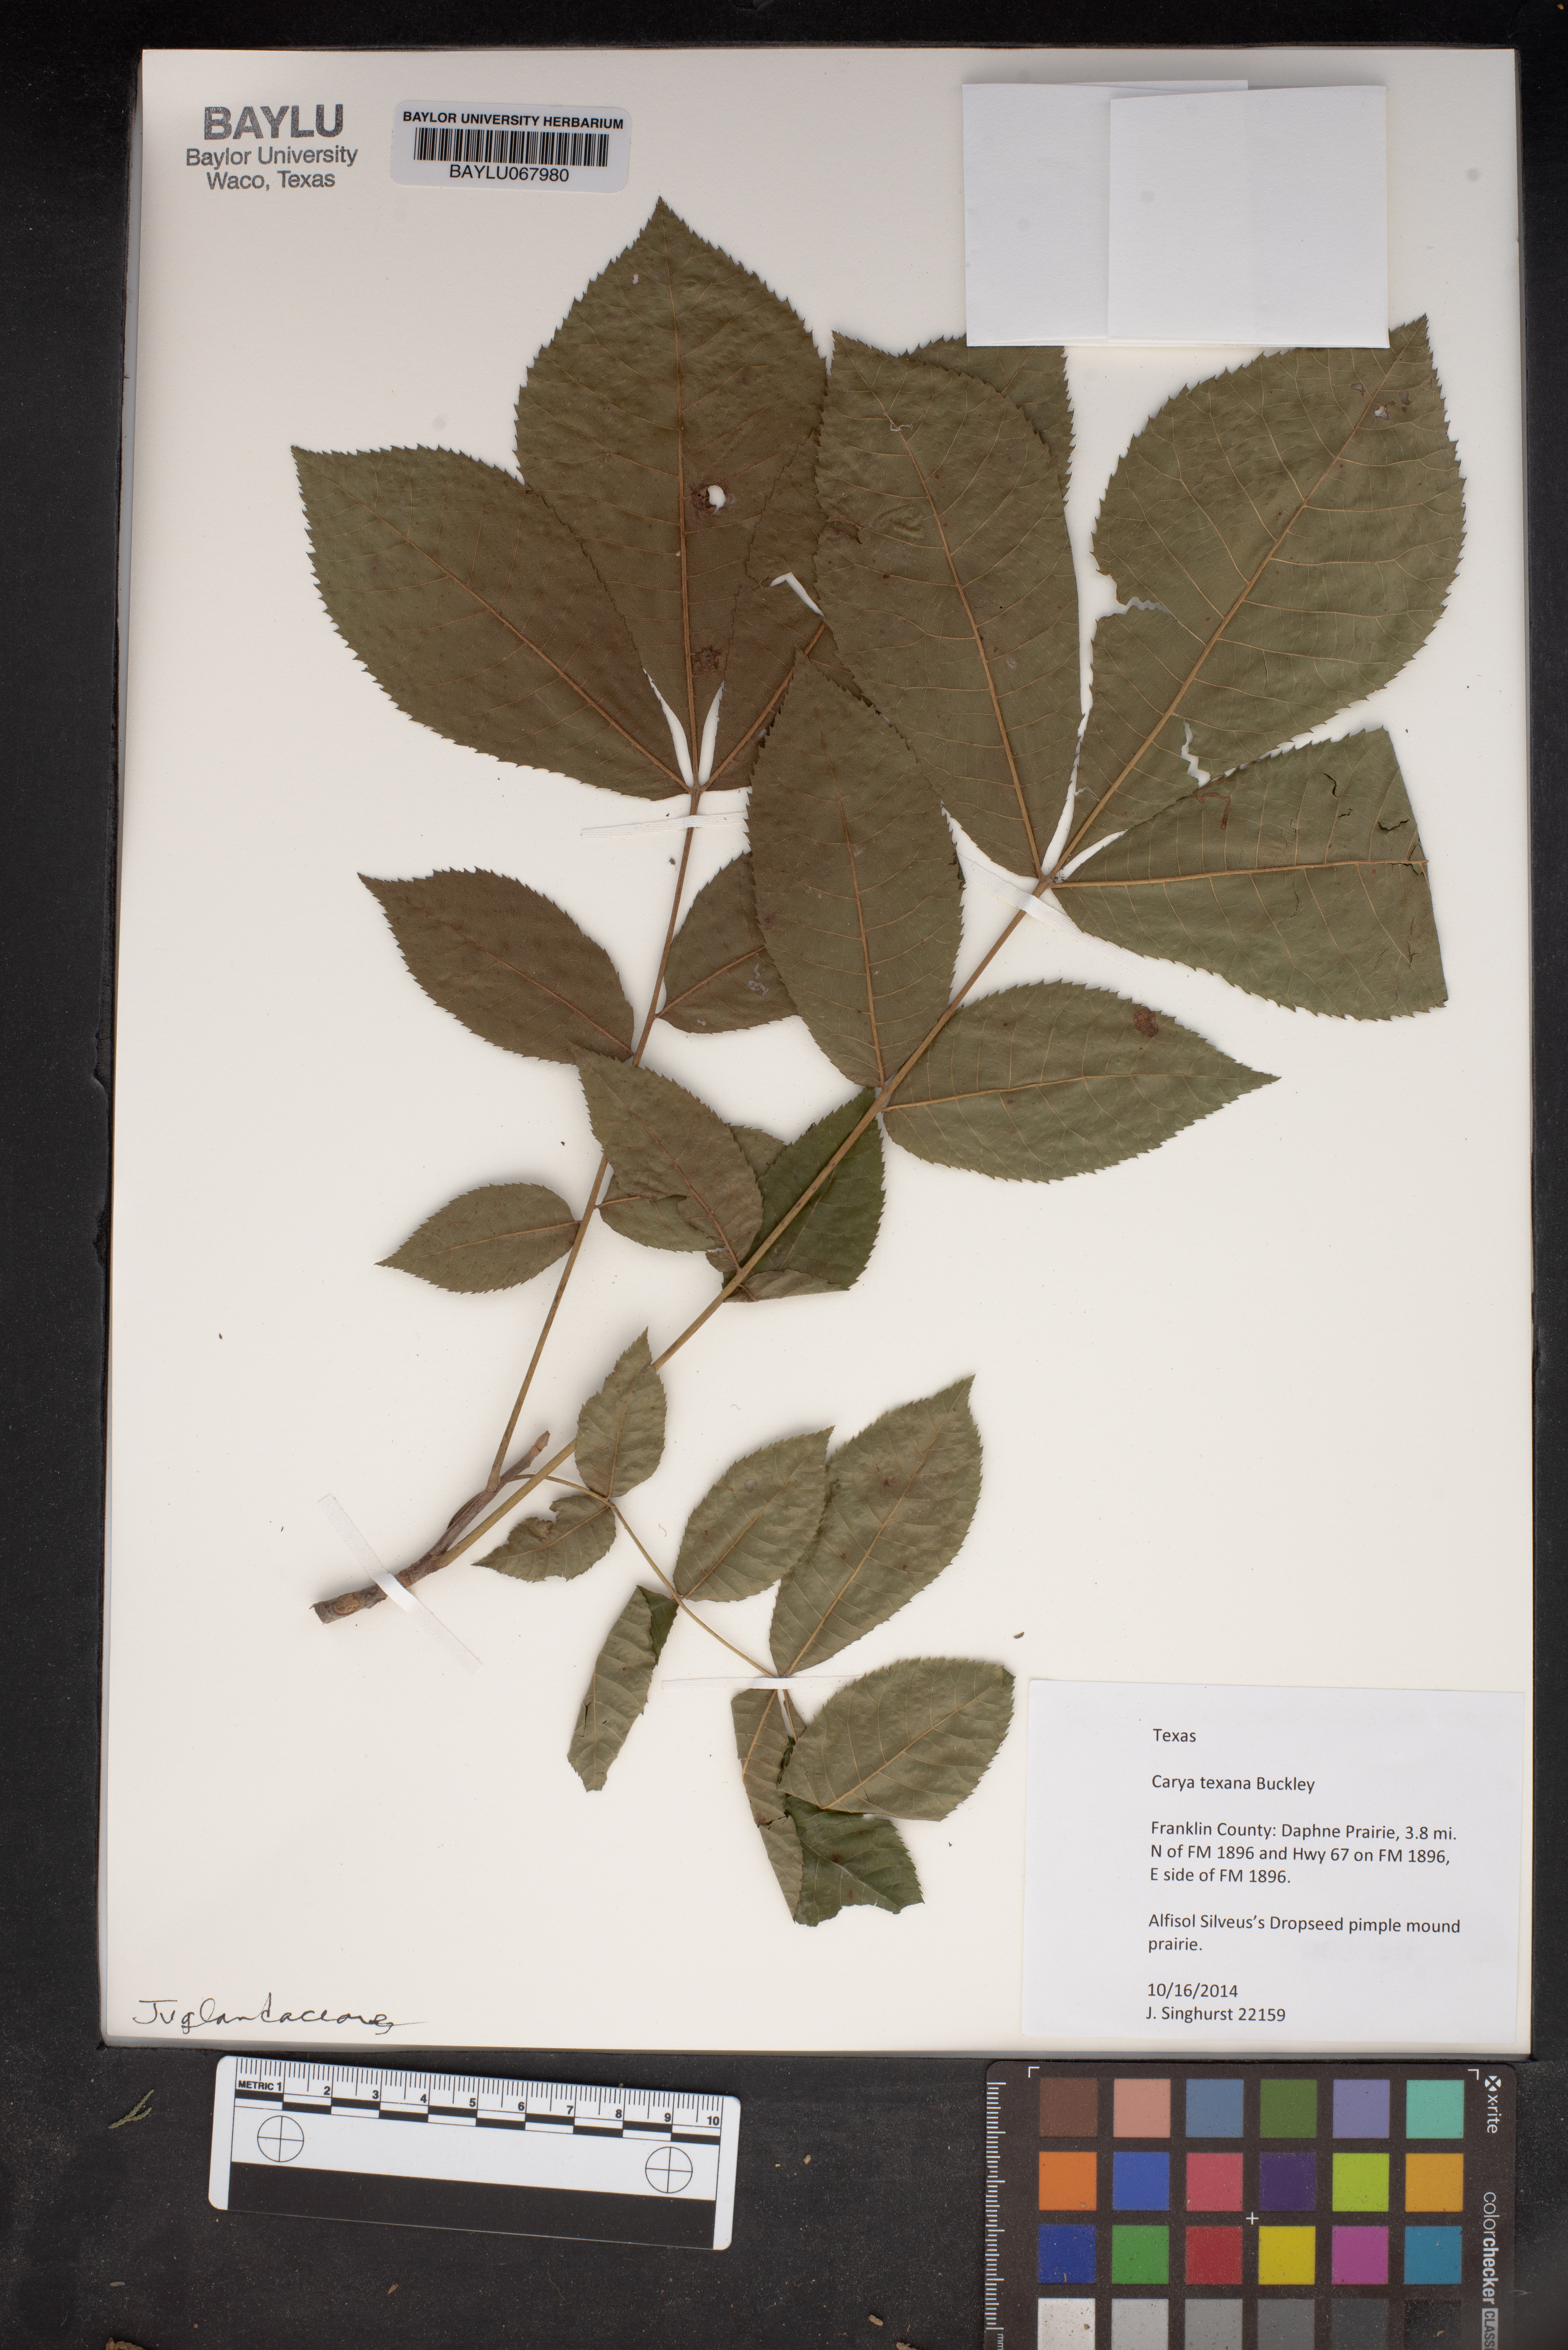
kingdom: Plantae
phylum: Tracheophyta
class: Magnoliopsida
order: Fagales
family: Juglandaceae
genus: Carya
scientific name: Carya texana
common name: Black hickory
